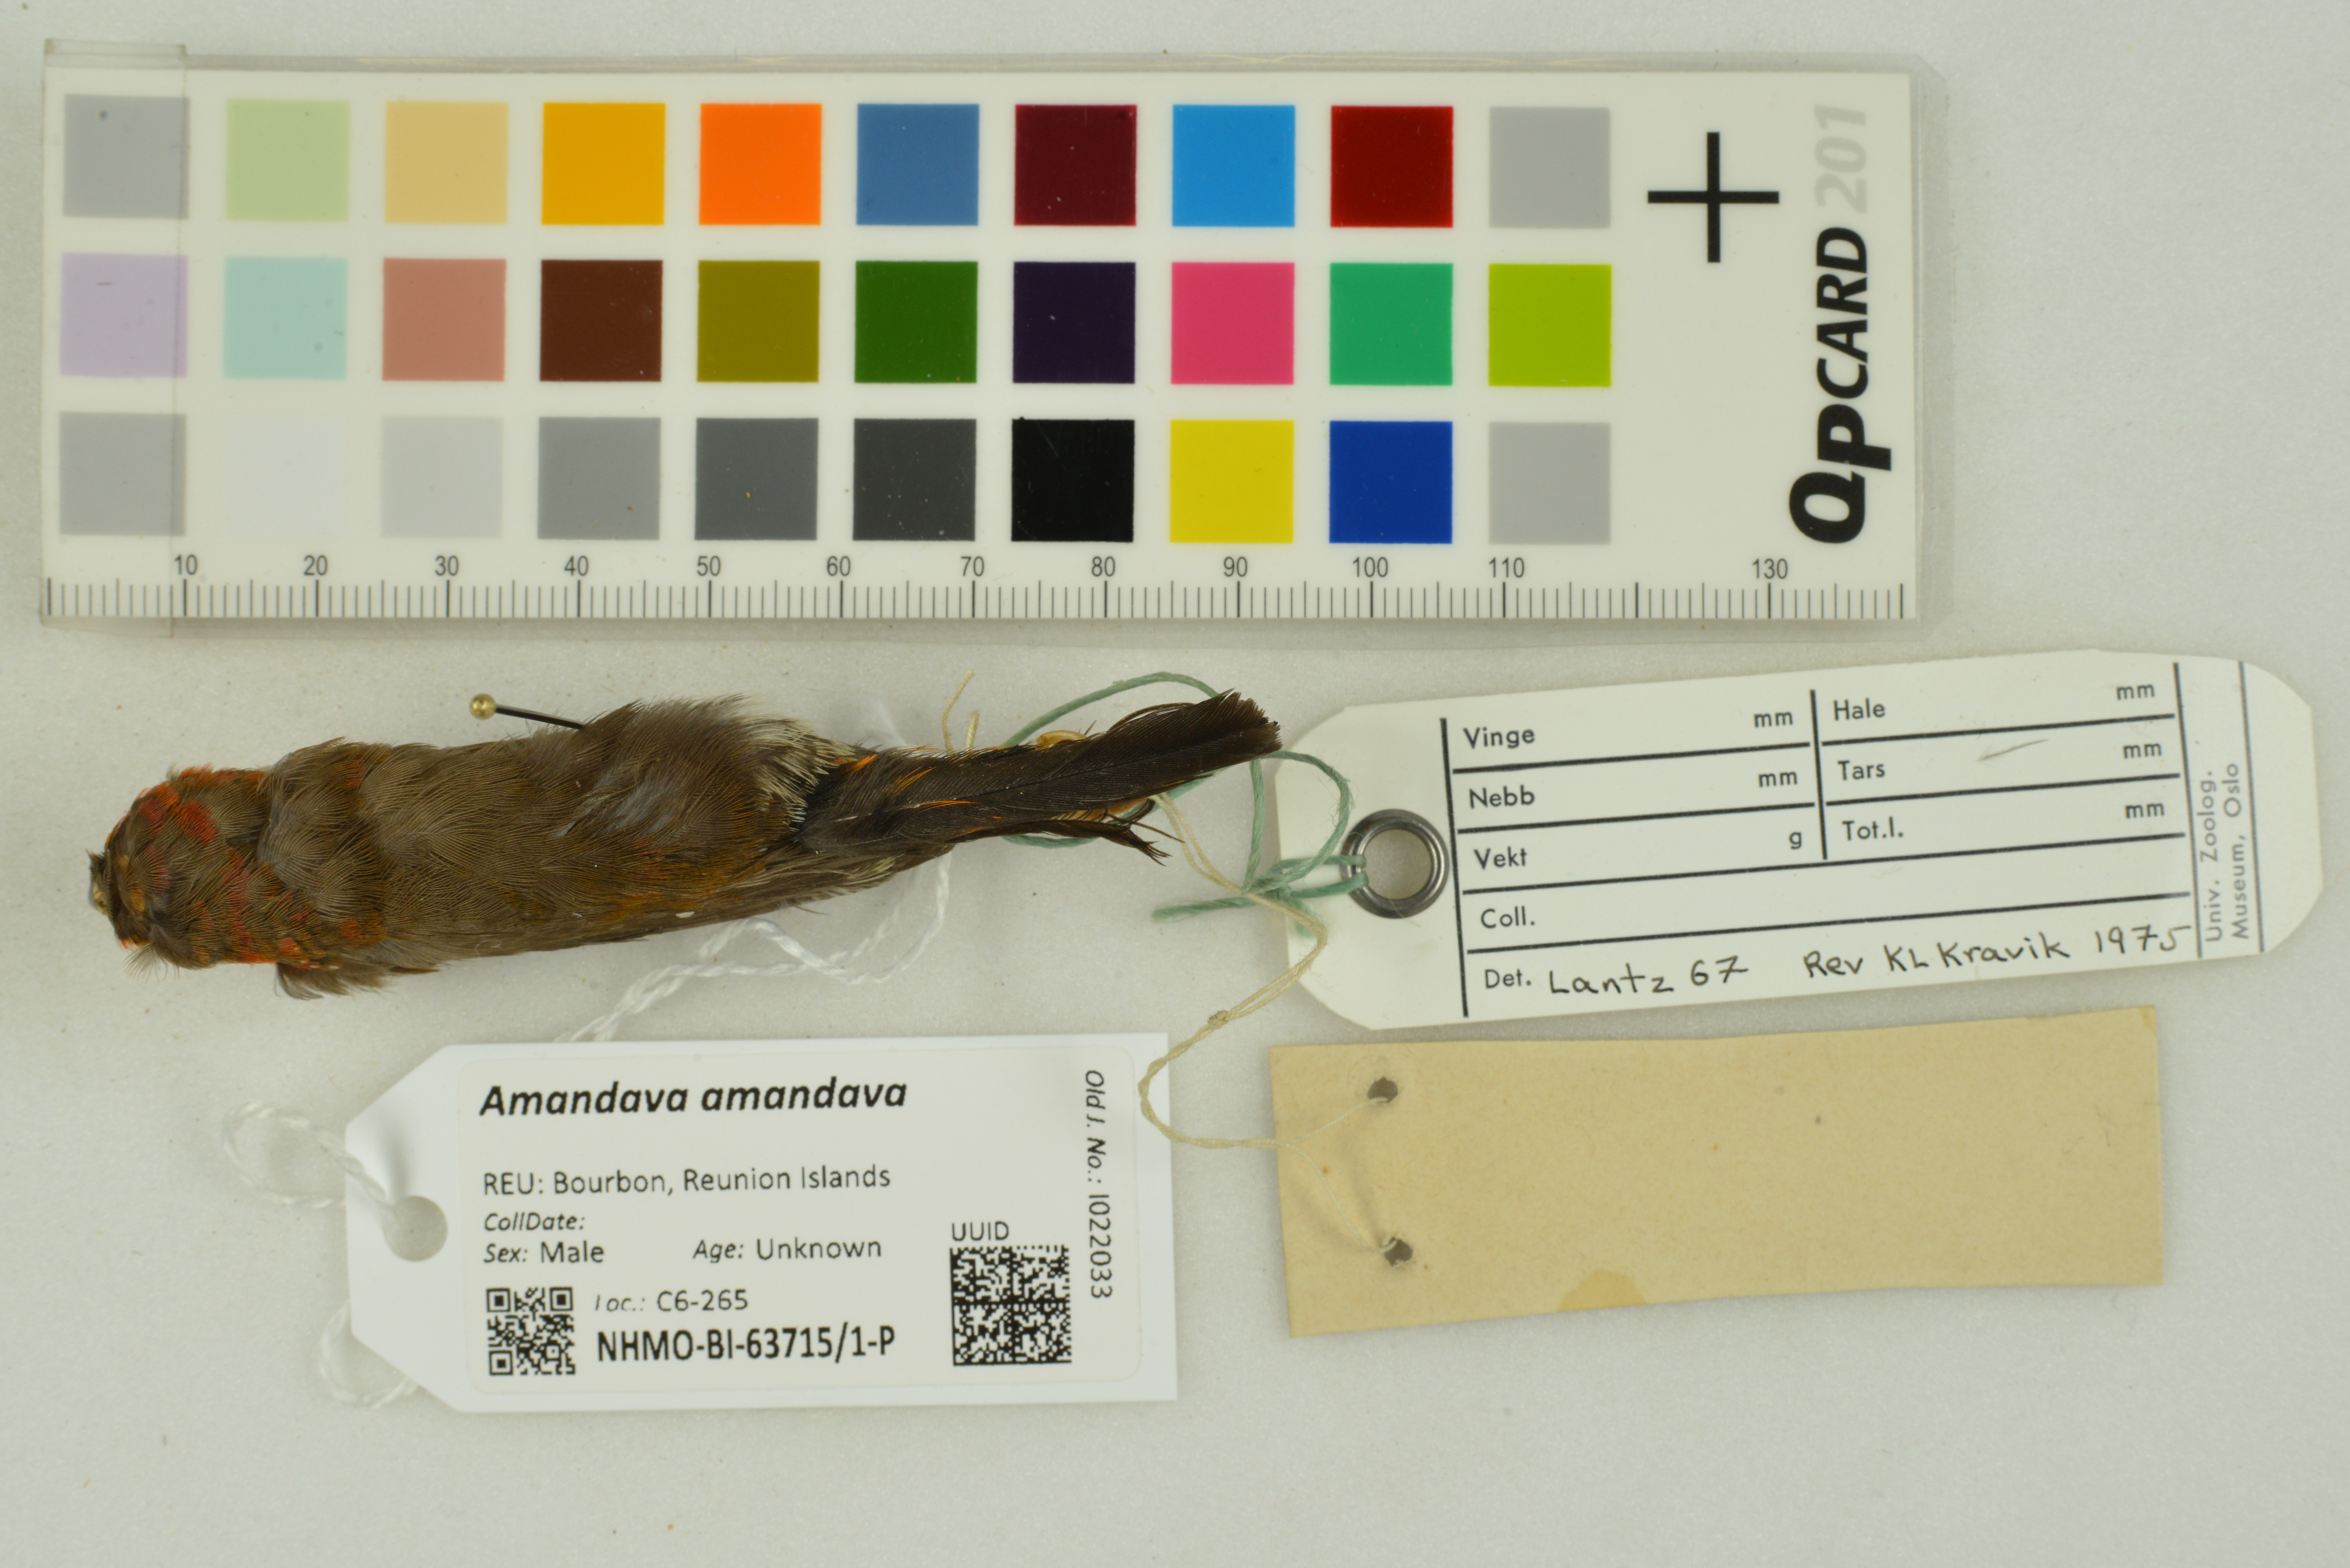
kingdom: Animalia
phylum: Chordata
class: Aves
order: Passeriformes
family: Estrildidae
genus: Amandava
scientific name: Amandava amandava
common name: Red avadavat
